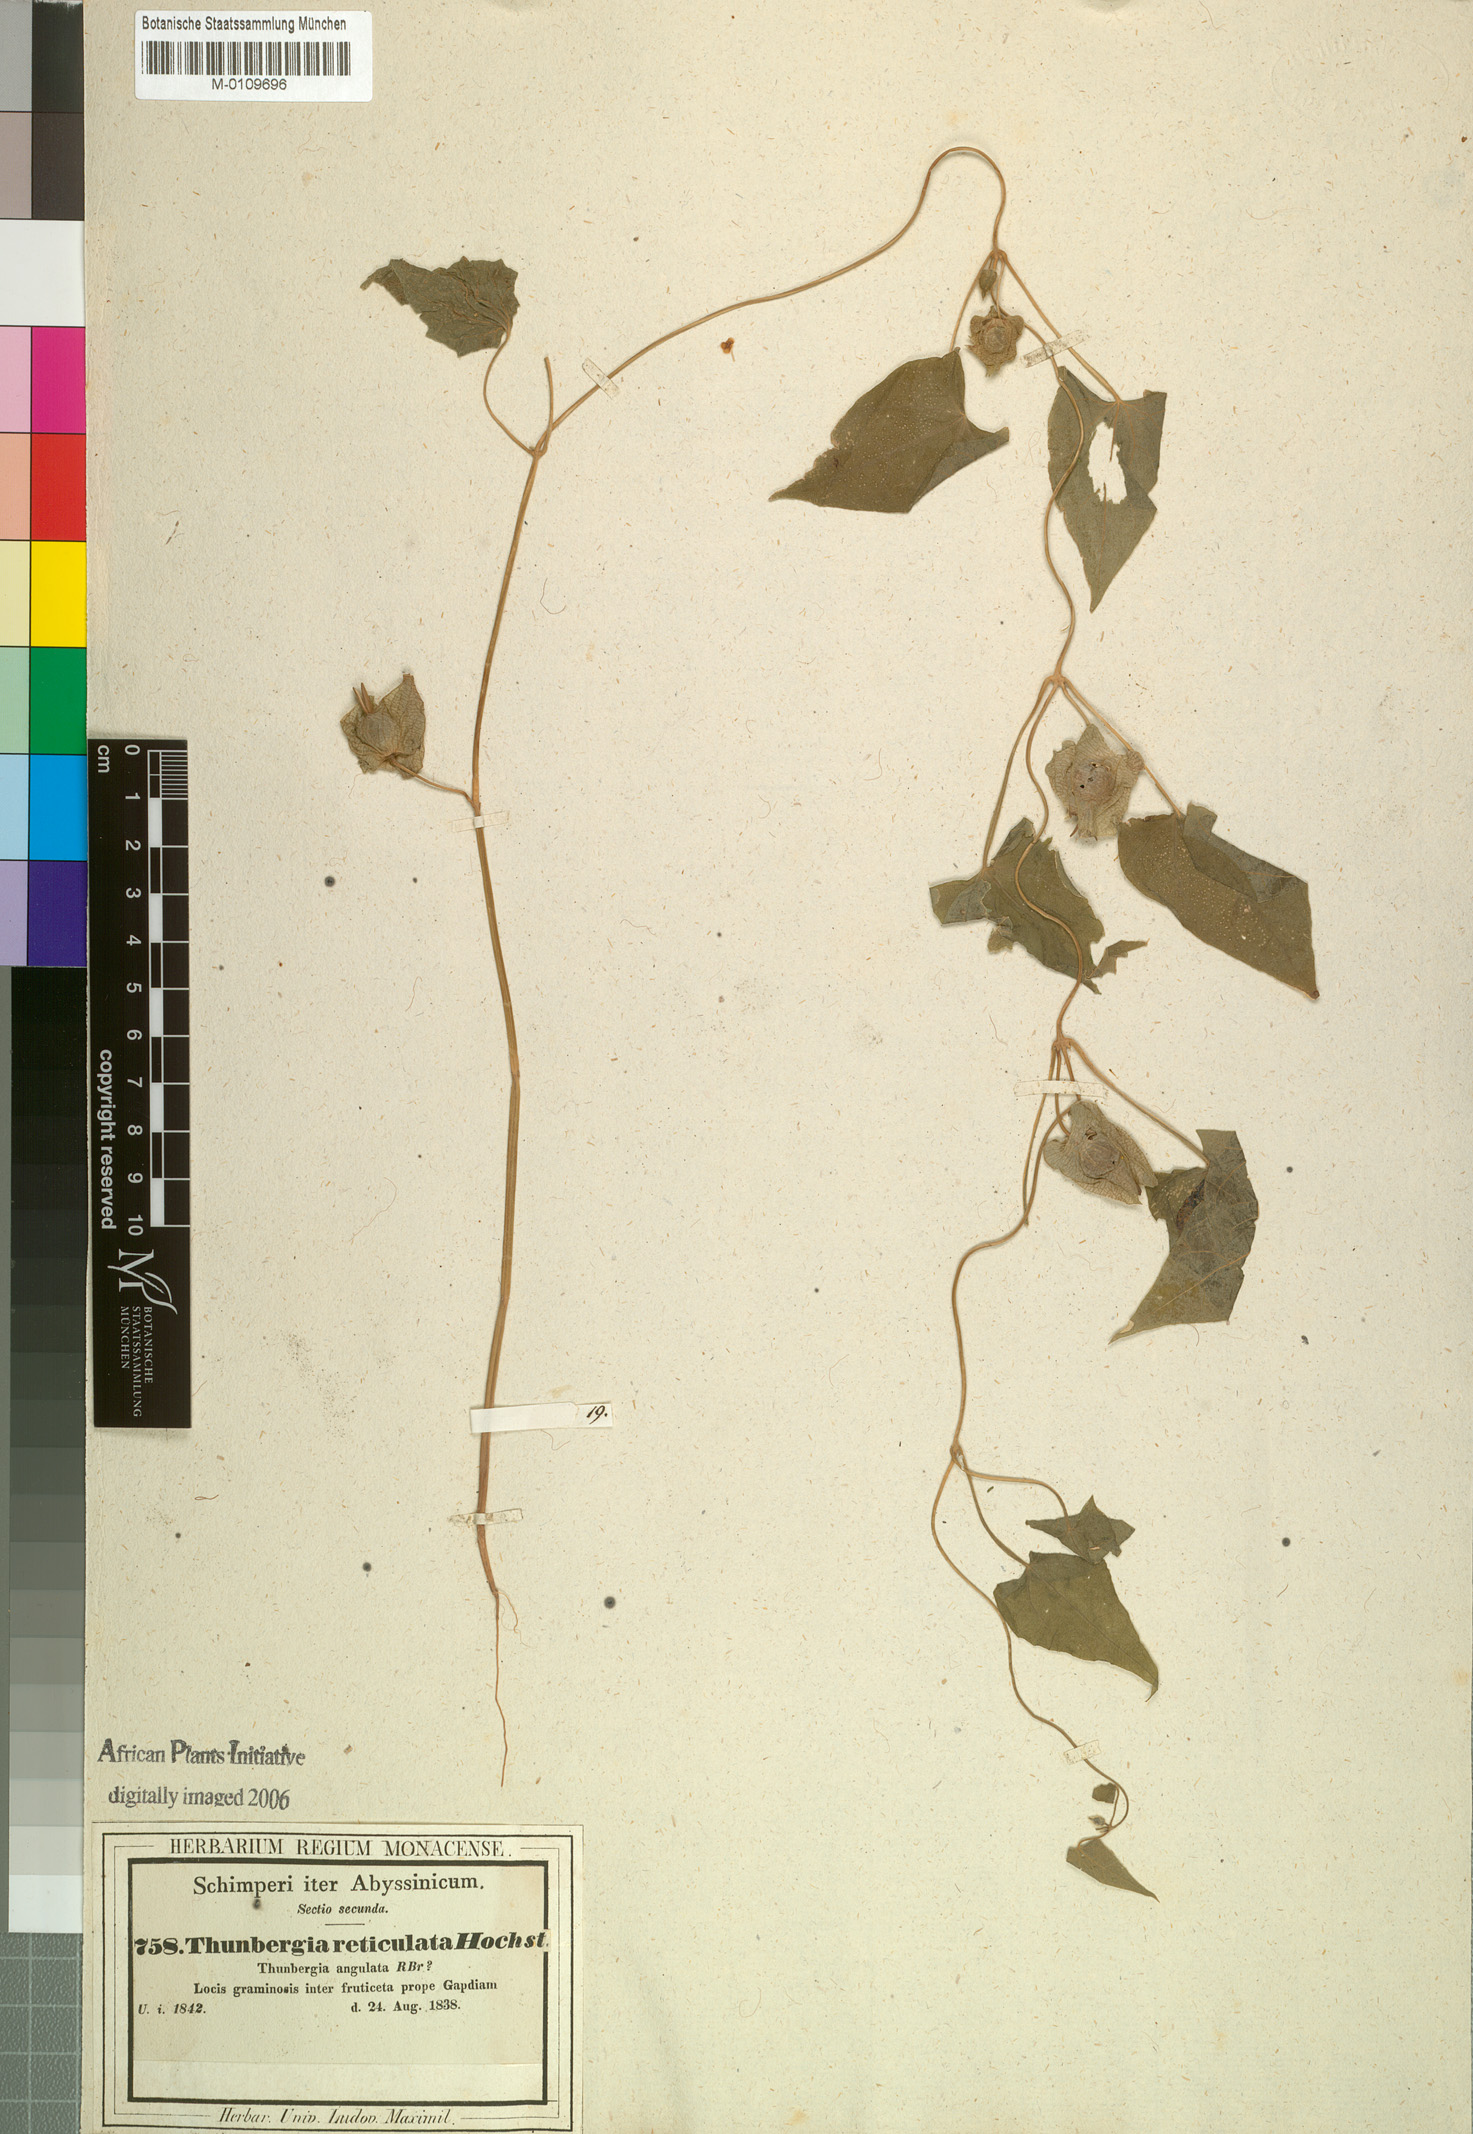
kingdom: Plantae
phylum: Tracheophyta
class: Magnoliopsida
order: Lamiales
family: Acanthaceae
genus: Thunbergia
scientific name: Thunbergia reticulata
